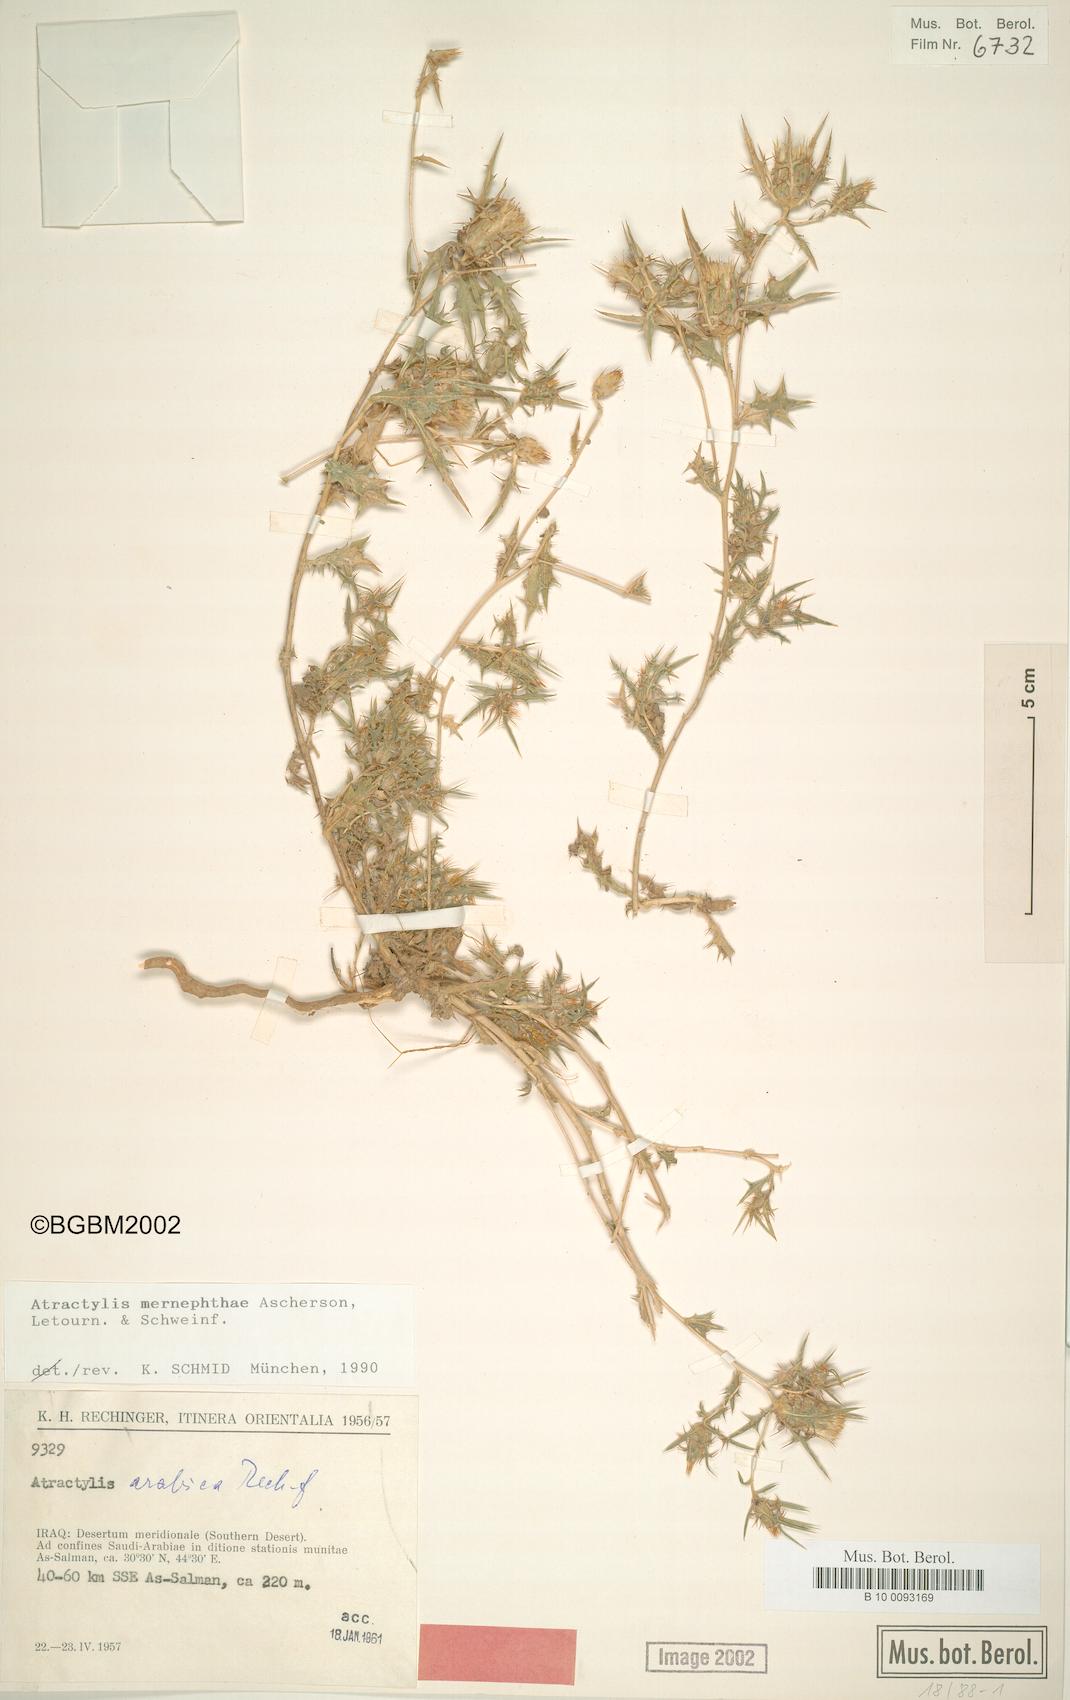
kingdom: Plantae
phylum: Tracheophyta
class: Magnoliopsida
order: Asterales
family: Asteraceae
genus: Atractylis
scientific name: Atractylis mernephtae
